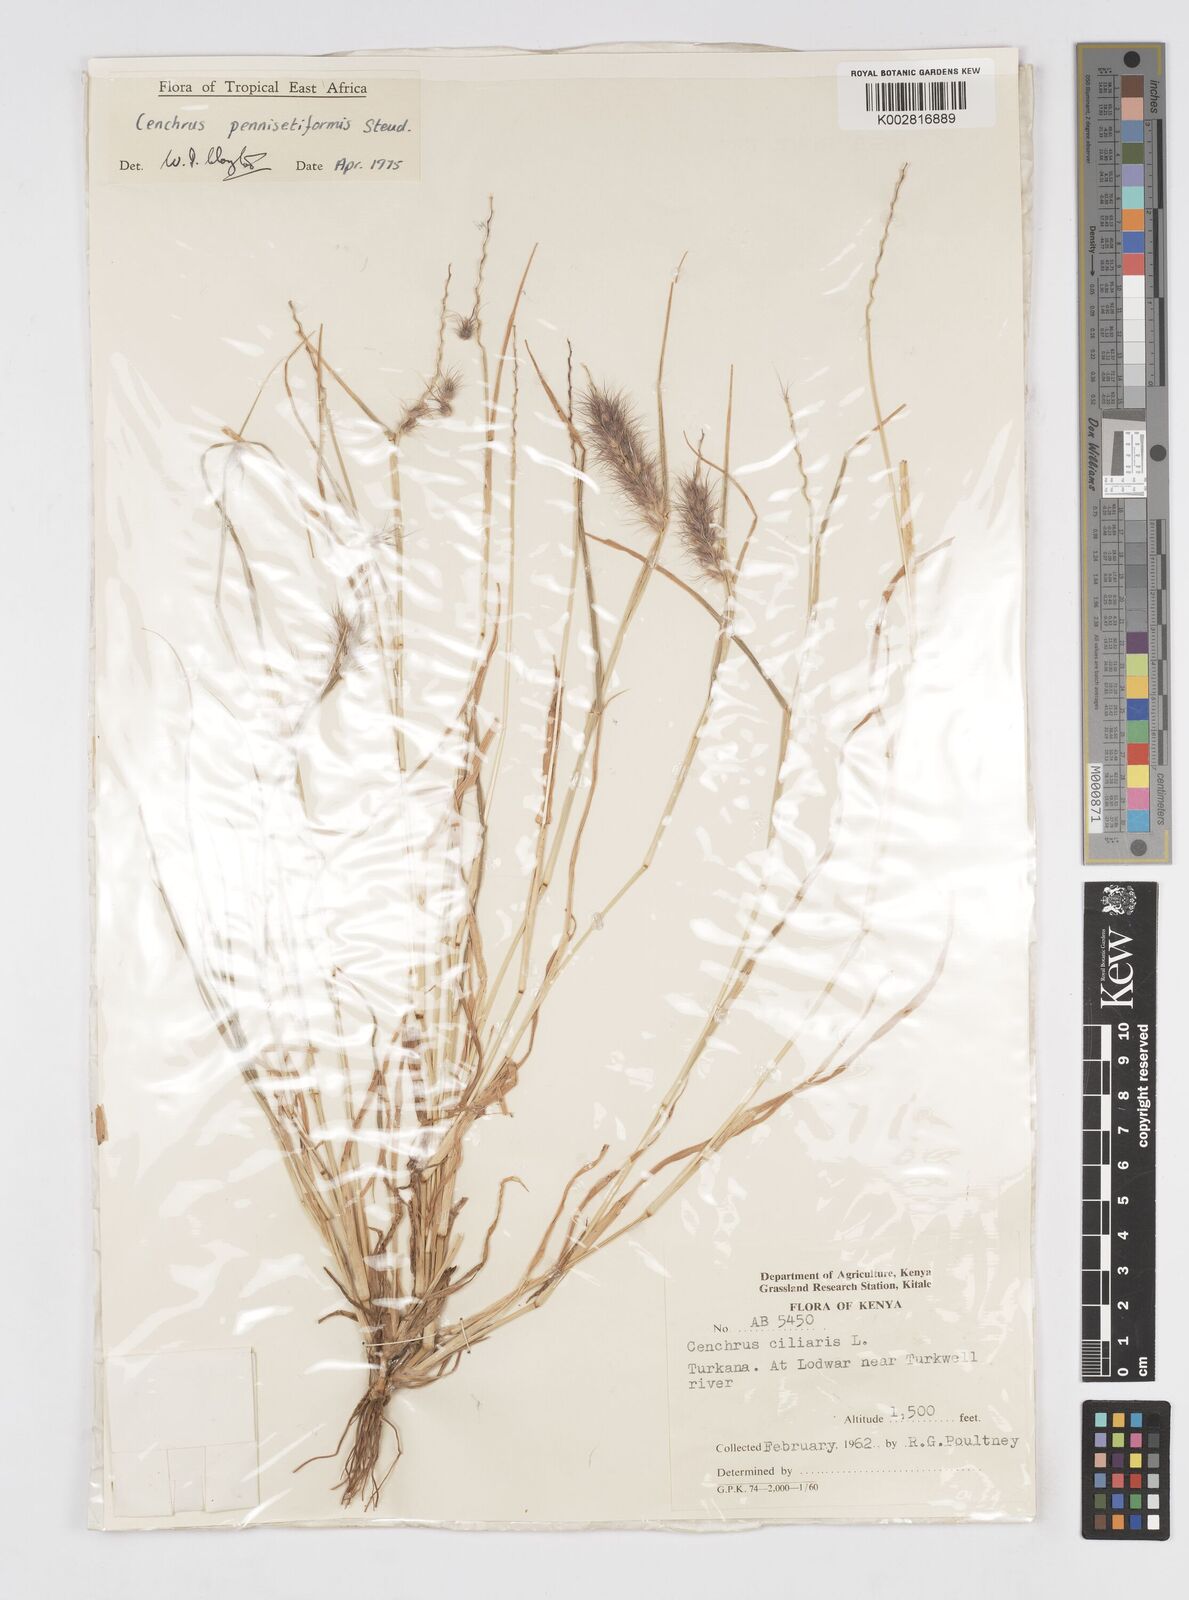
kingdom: Plantae
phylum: Tracheophyta
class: Liliopsida
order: Poales
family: Poaceae
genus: Cenchrus
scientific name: Cenchrus pennisetiformis
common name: Cloncurry
